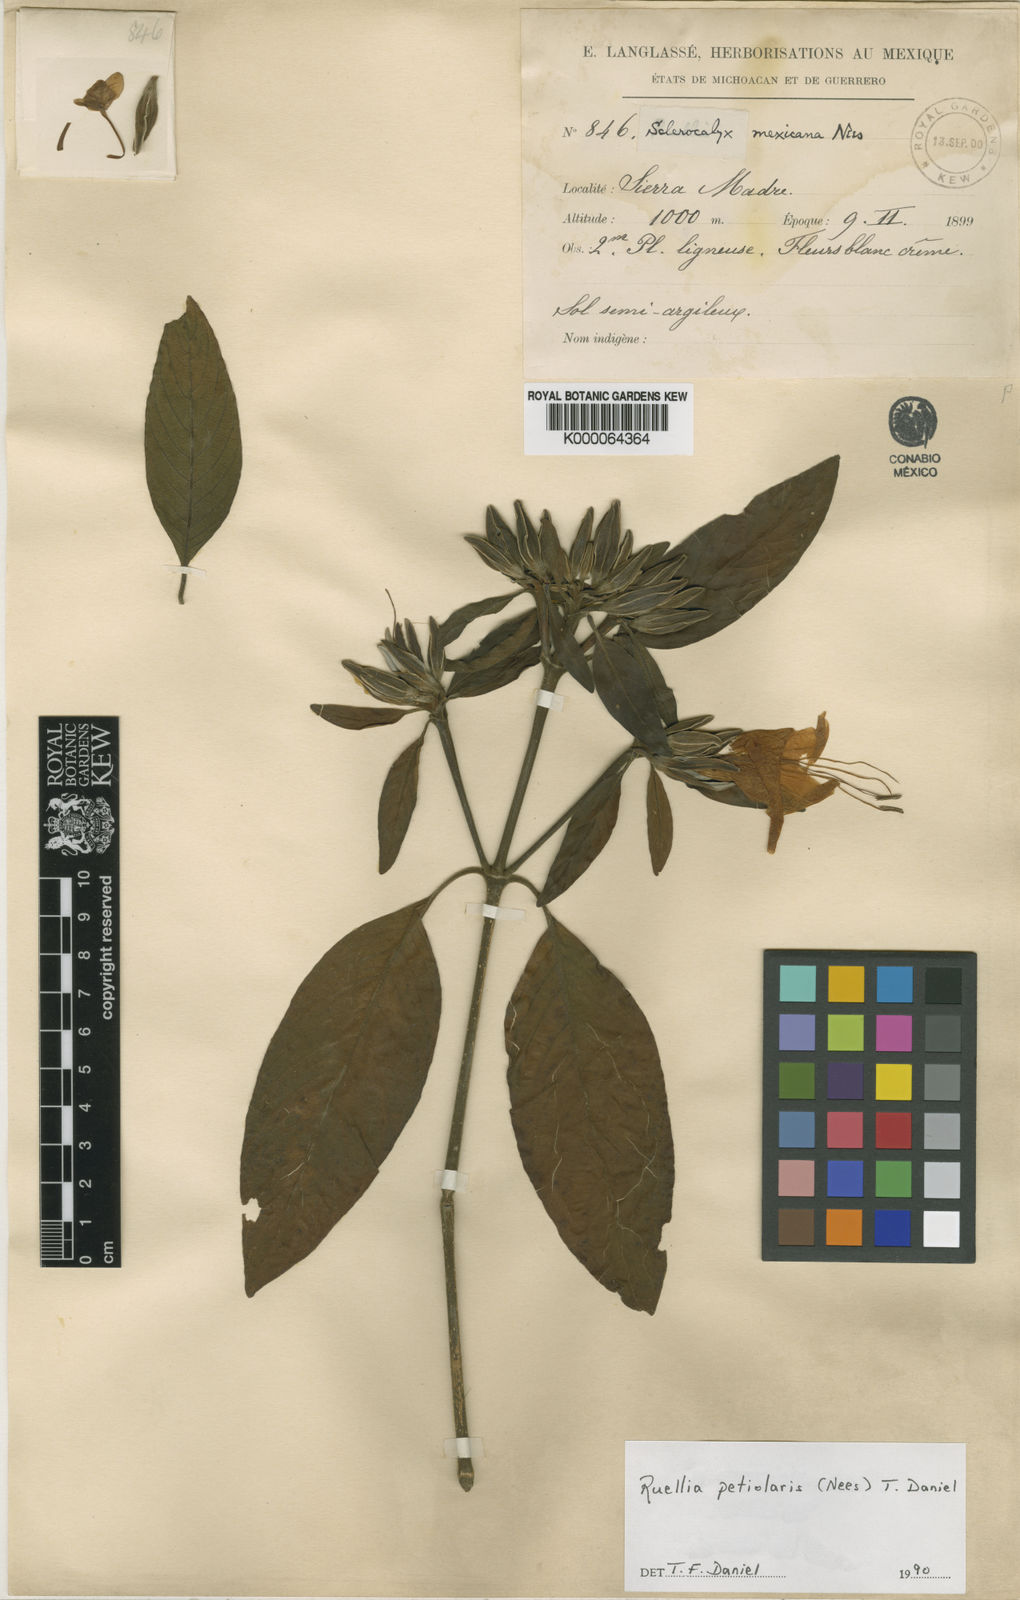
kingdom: Plantae
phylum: Tracheophyta
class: Magnoliopsida
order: Lamiales
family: Acanthaceae
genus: Ruellia
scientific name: Ruellia petiolaris
